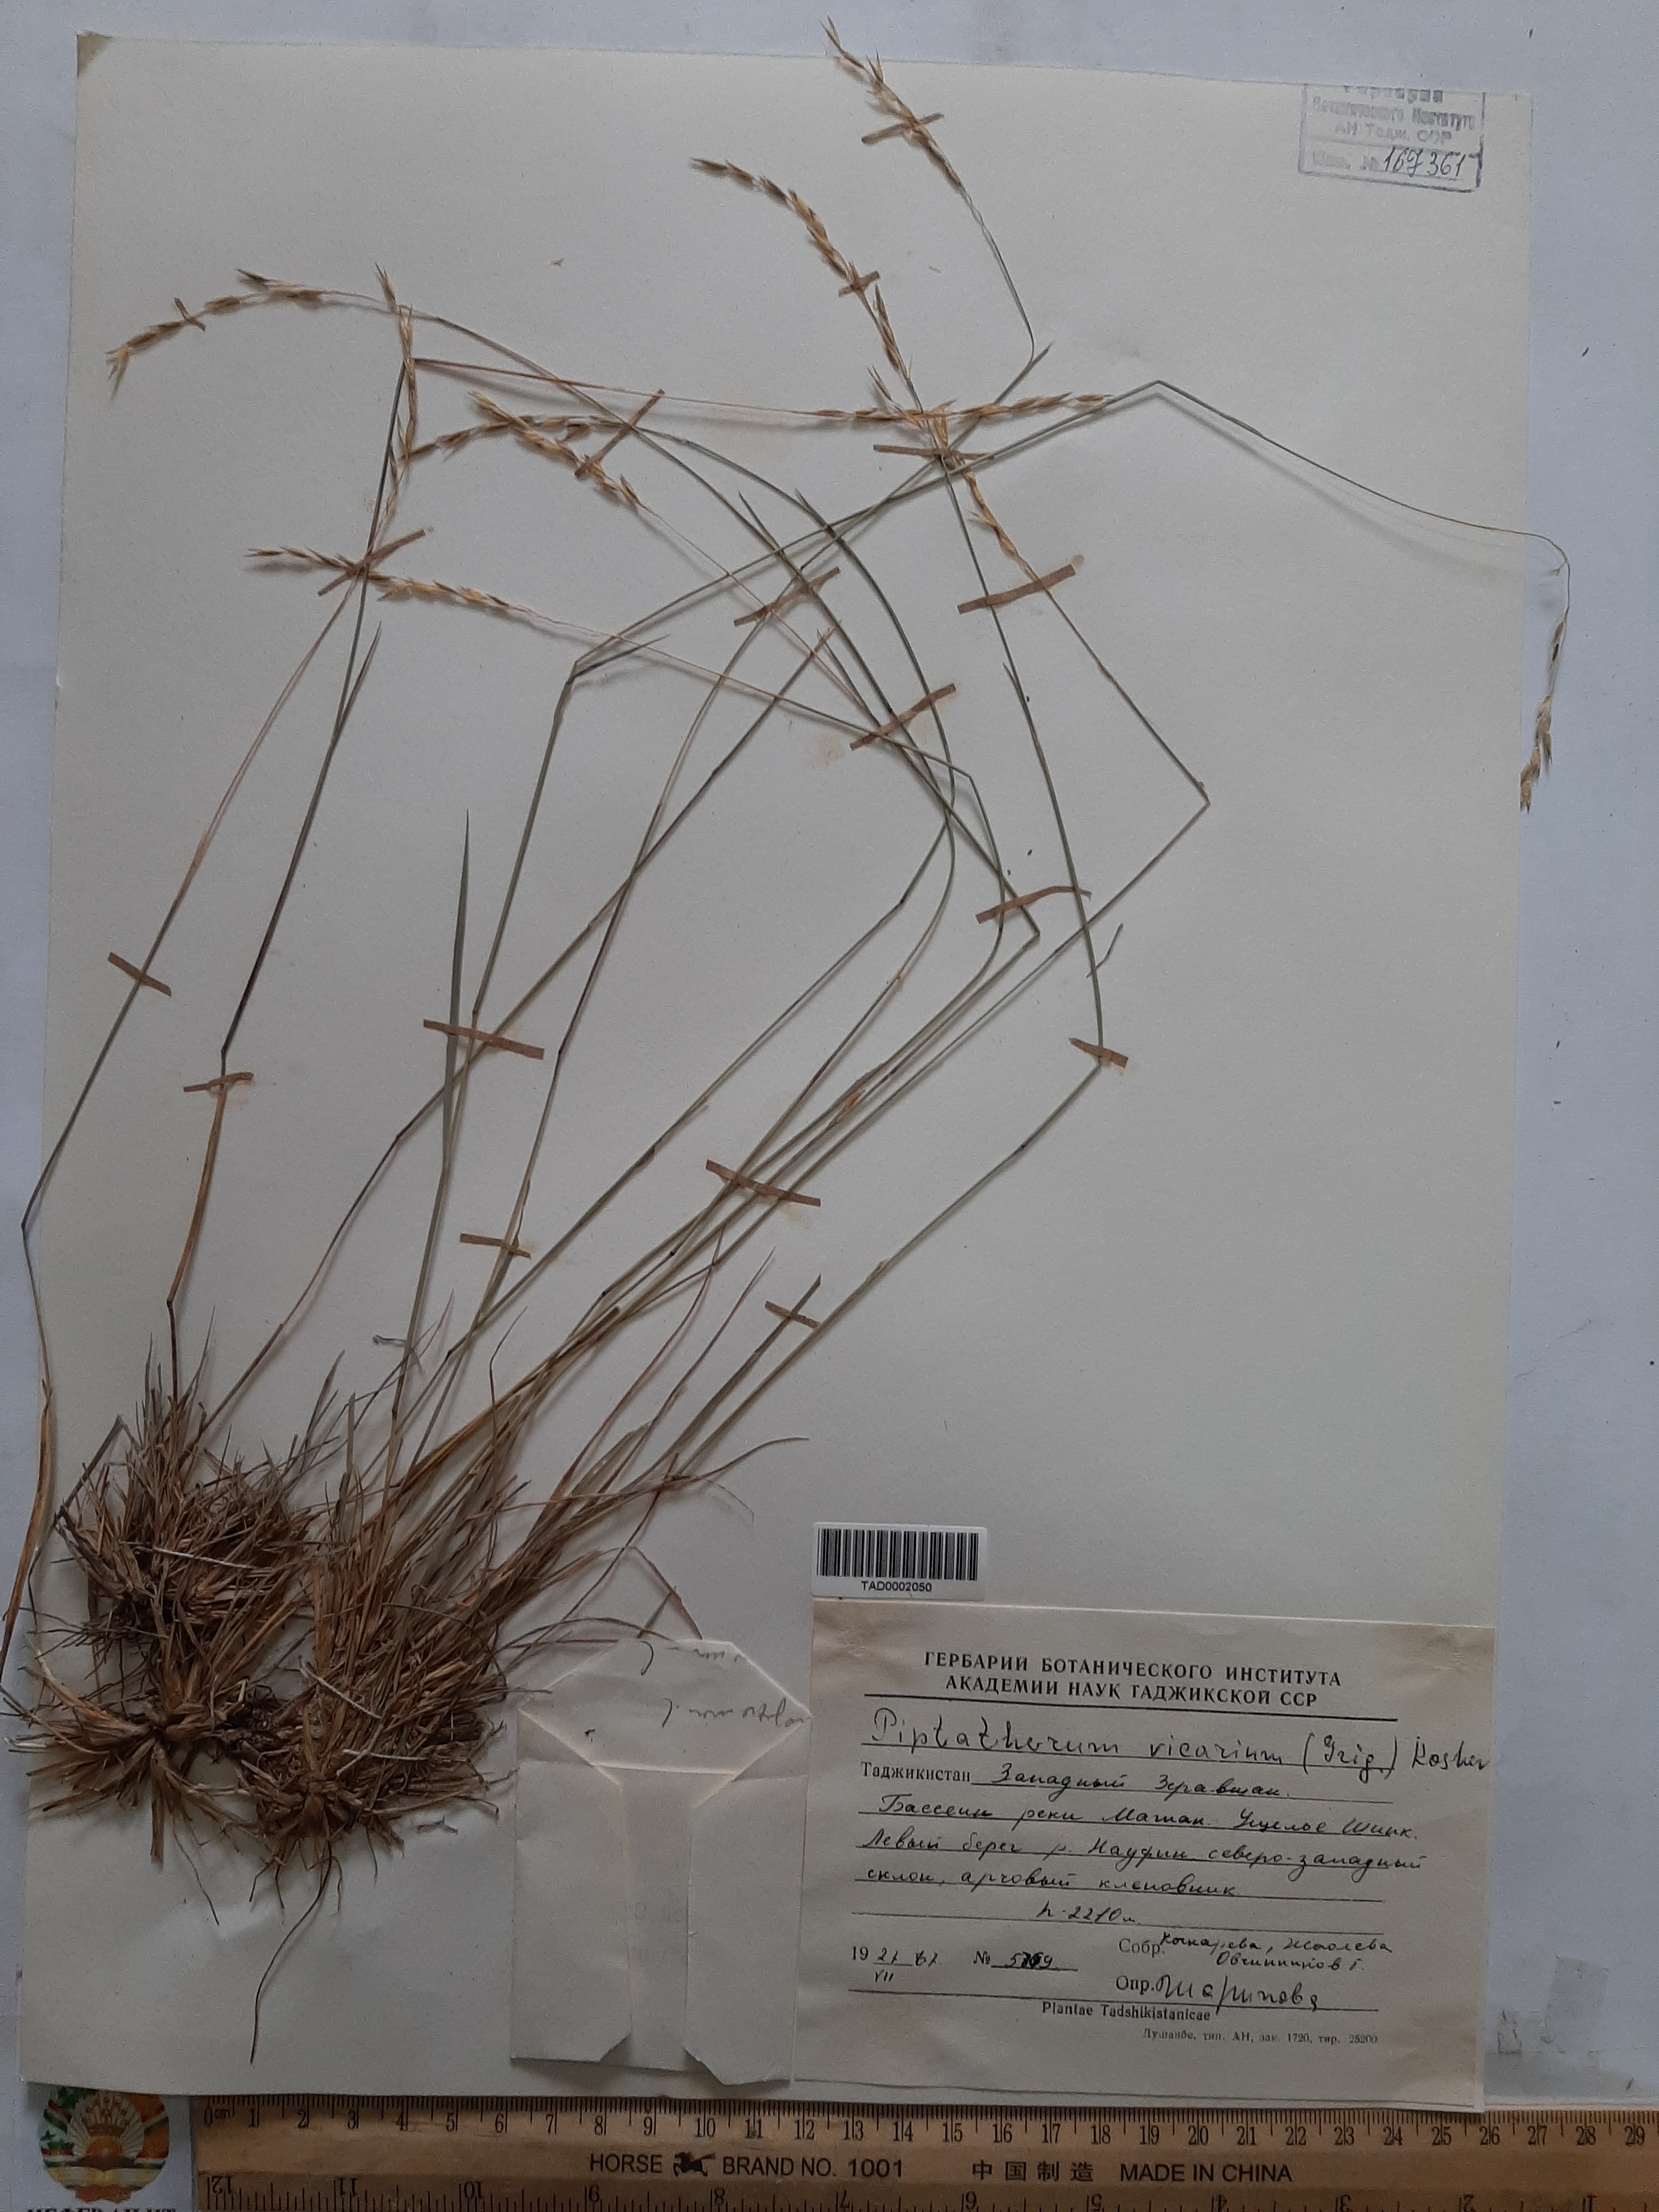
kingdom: Plantae
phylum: Tracheophyta
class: Liliopsida
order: Poales
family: Poaceae
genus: Piptatherum
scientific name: Piptatherum sogdianum
